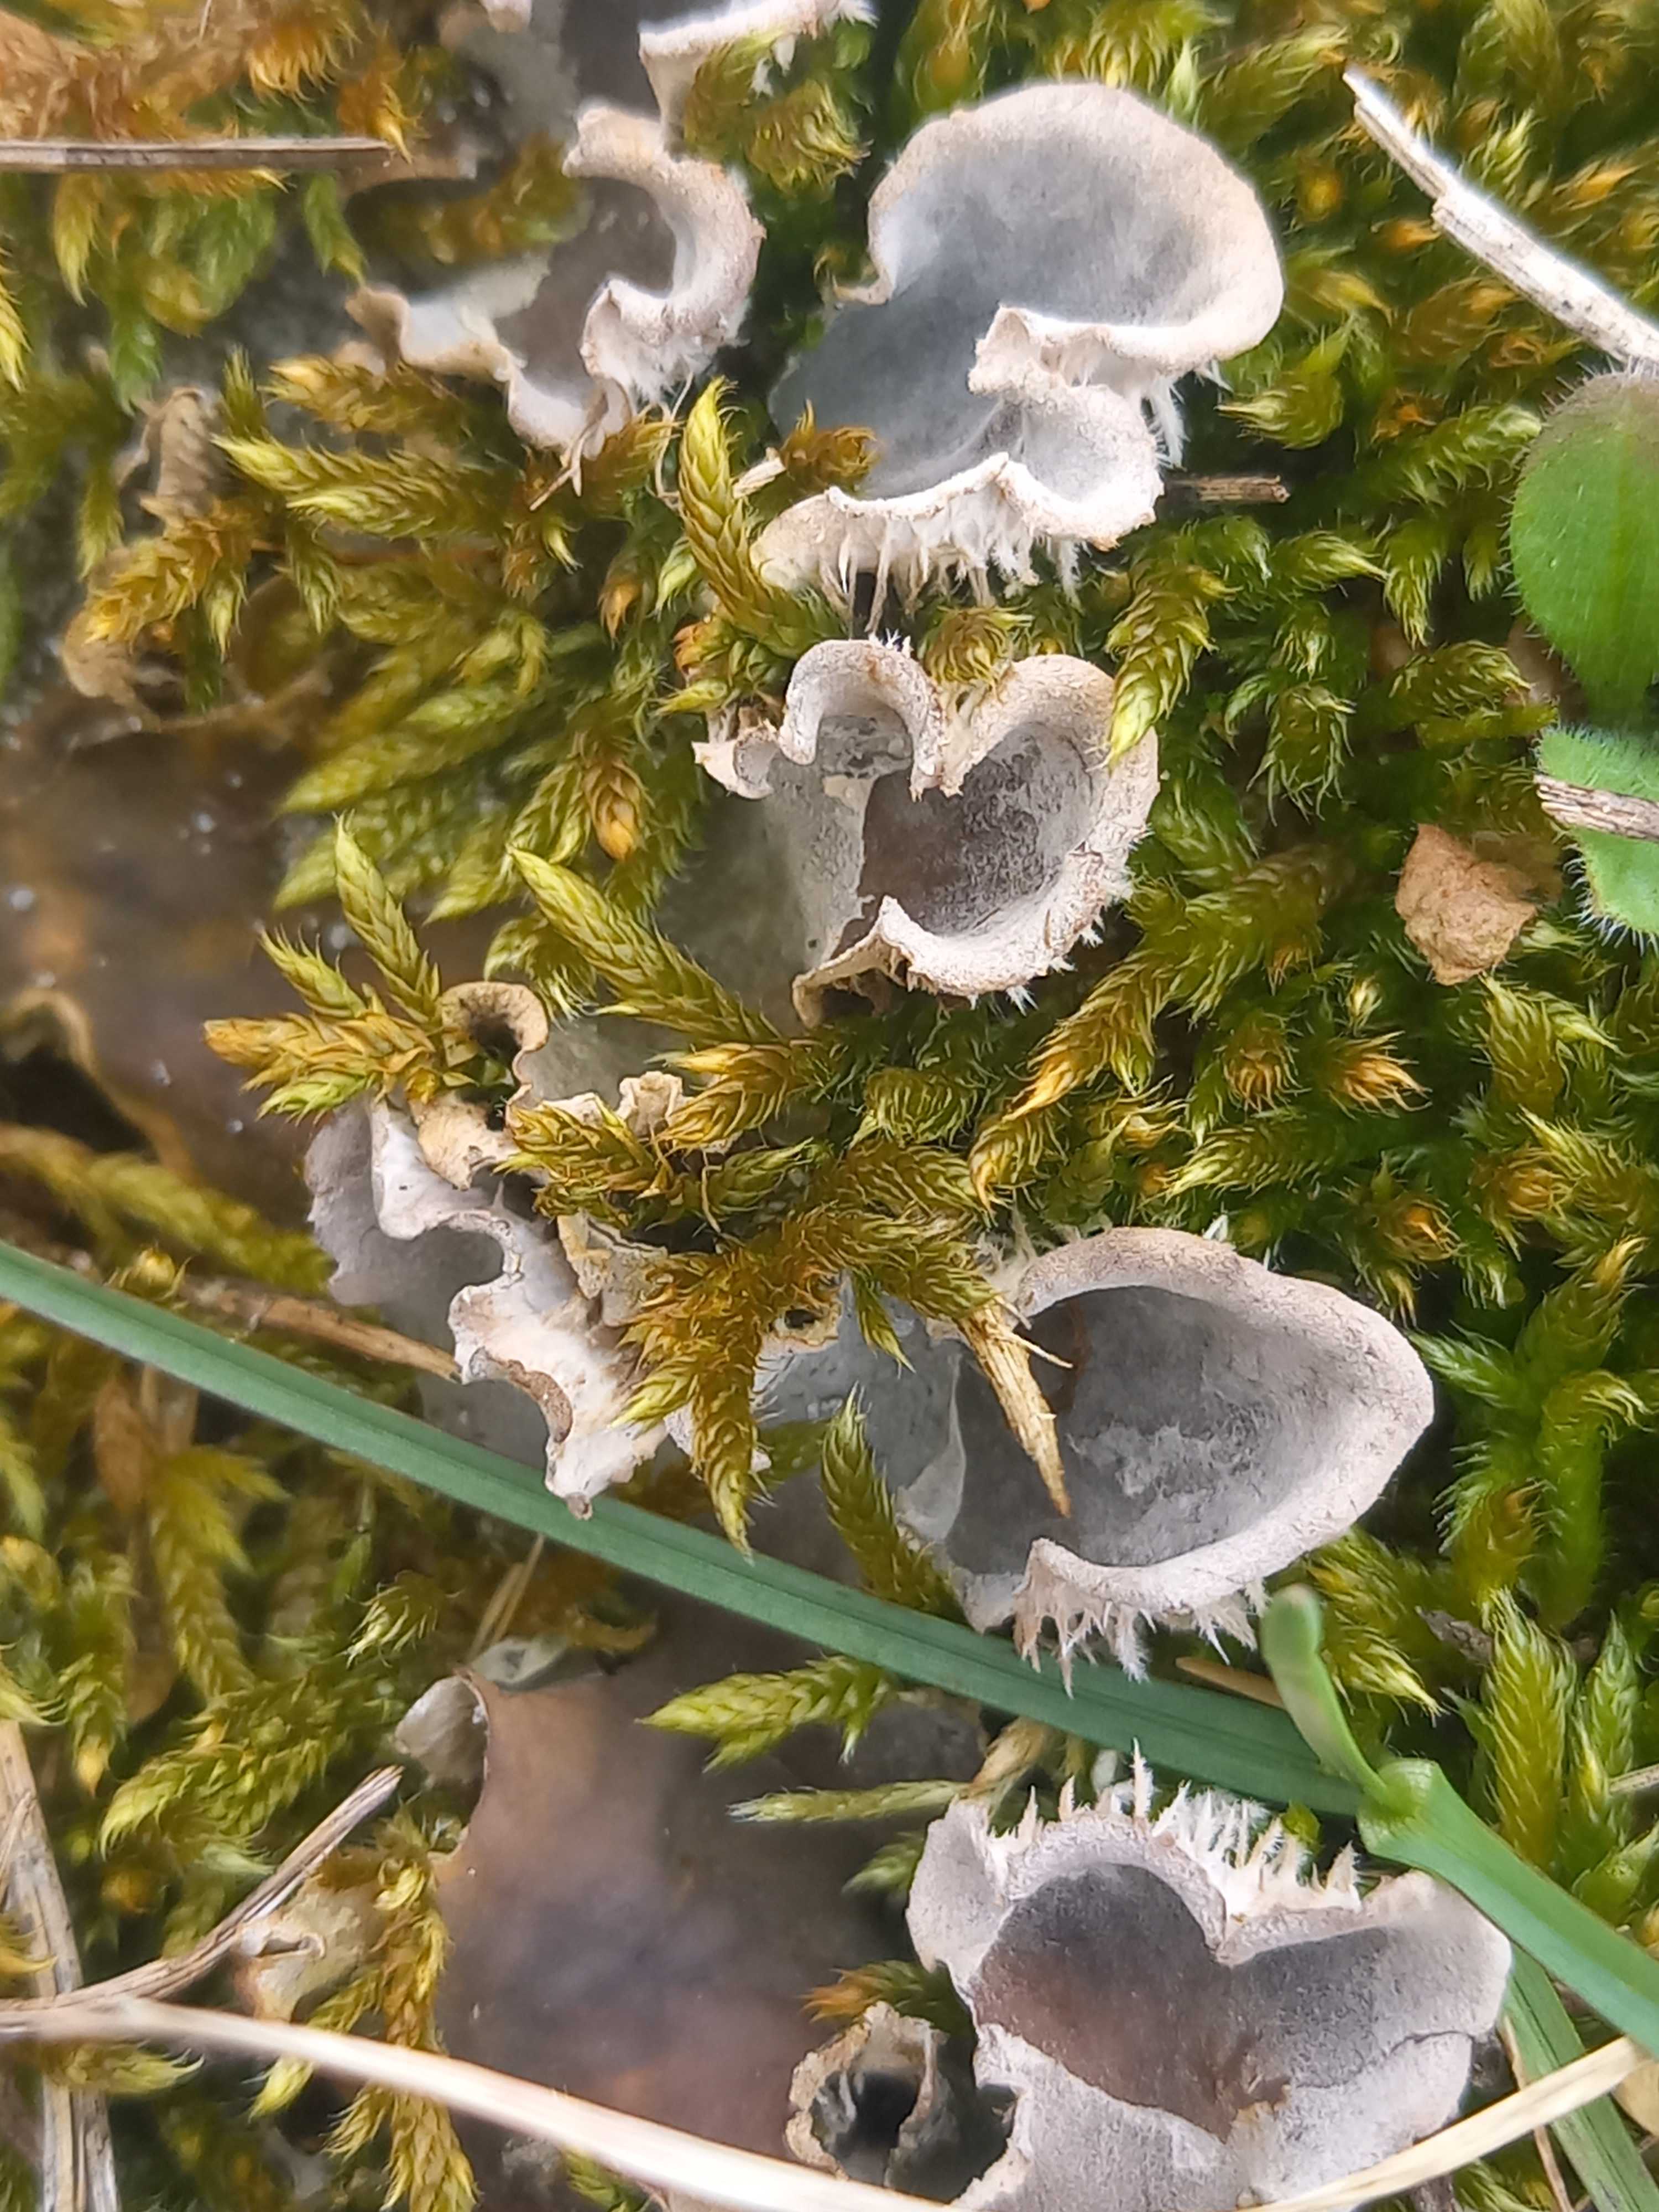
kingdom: Fungi
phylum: Ascomycota
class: Lecanoromycetes
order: Peltigerales
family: Peltigeraceae
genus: Peltigera
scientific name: Peltigera membranacea
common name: tynd skjoldlav
